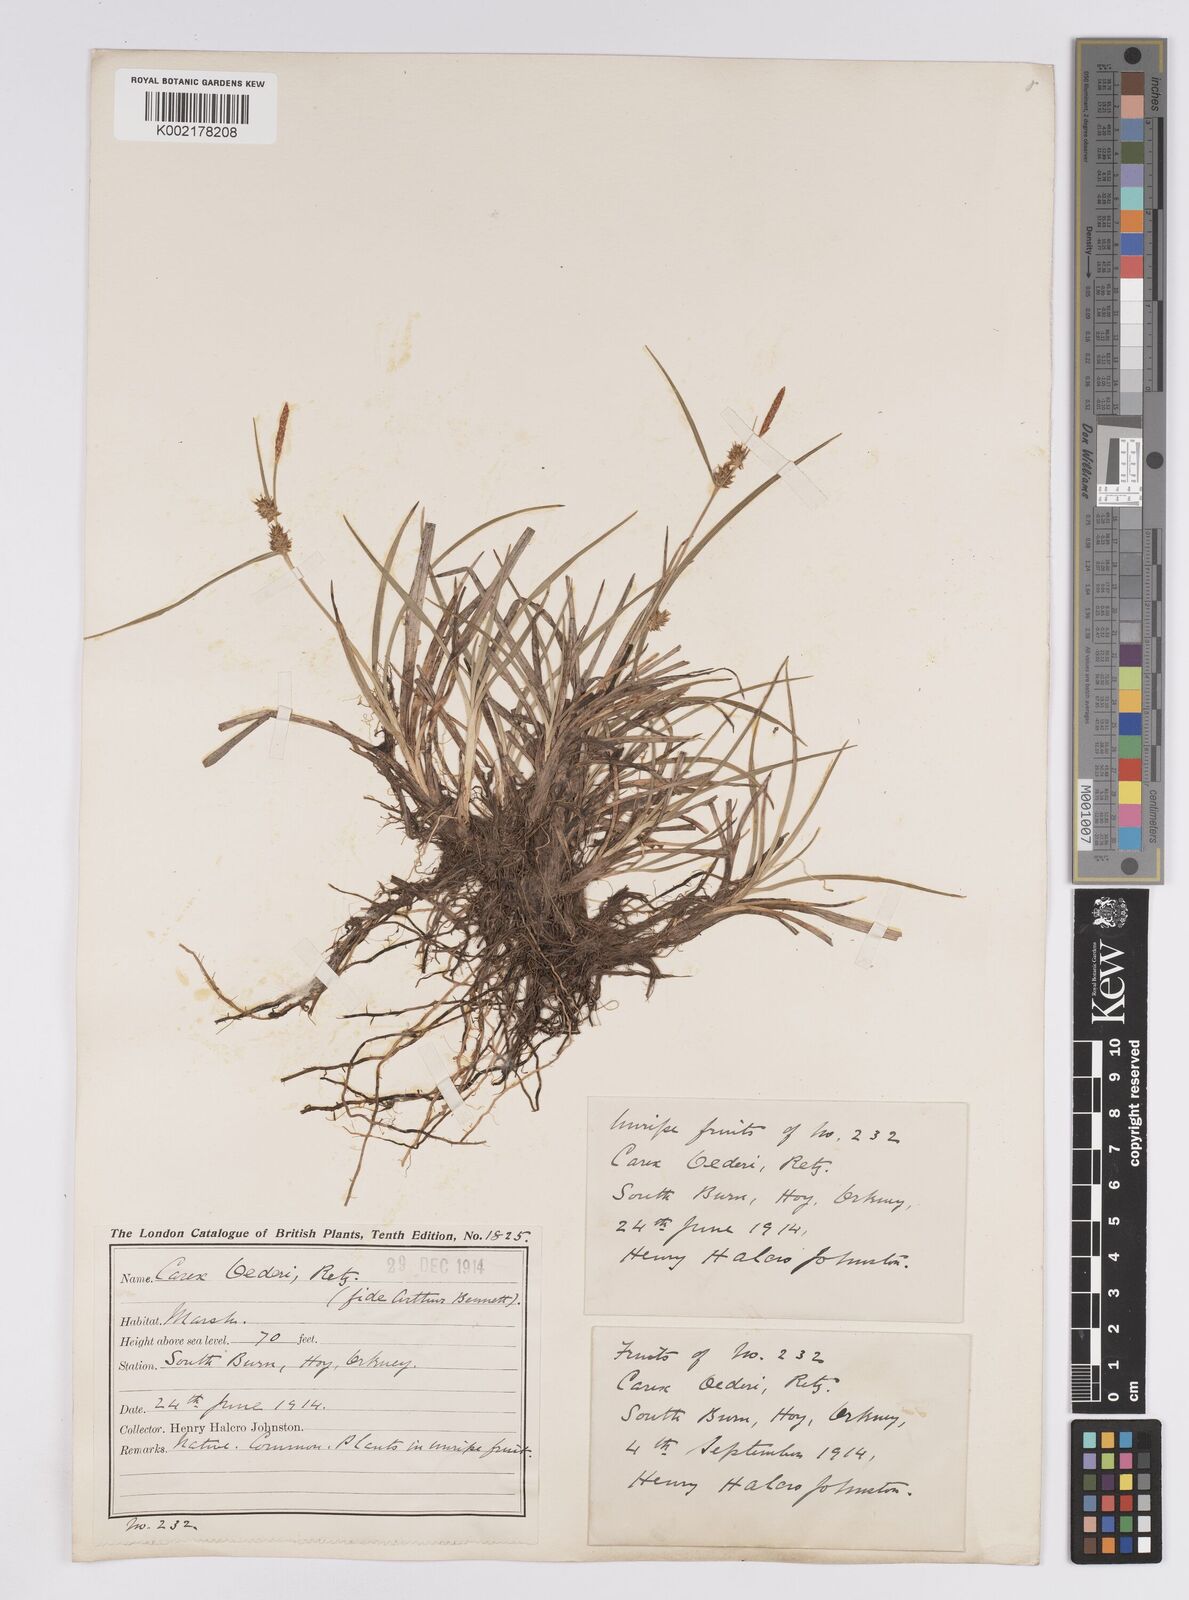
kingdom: Plantae
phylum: Tracheophyta
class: Liliopsida
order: Poales
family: Cyperaceae
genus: Carex
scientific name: Carex demissa
